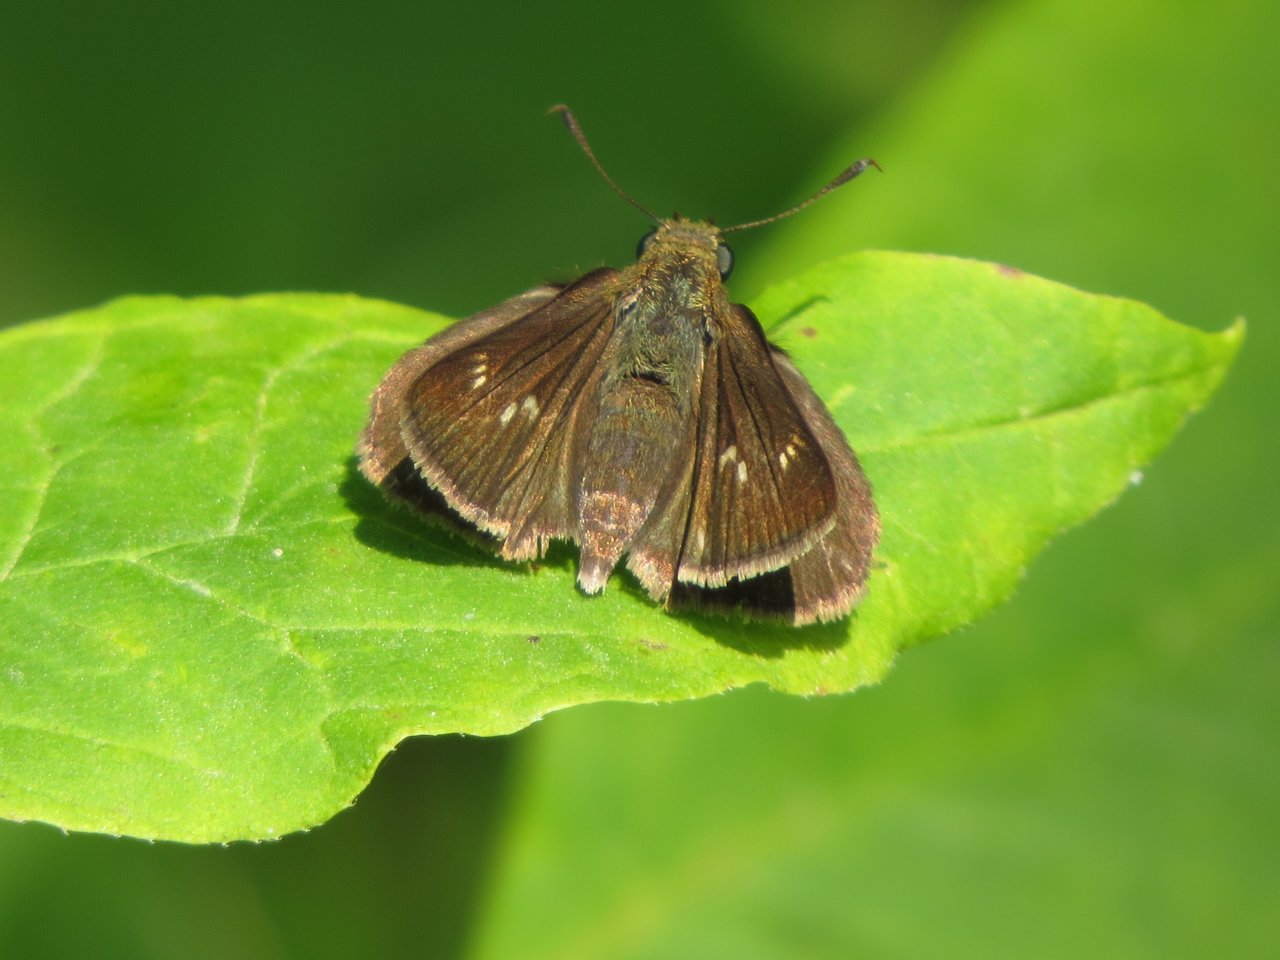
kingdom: Animalia
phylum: Arthropoda
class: Insecta
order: Lepidoptera
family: Hesperiidae
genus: Euphyes
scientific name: Euphyes vestris
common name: Dun Skipper
